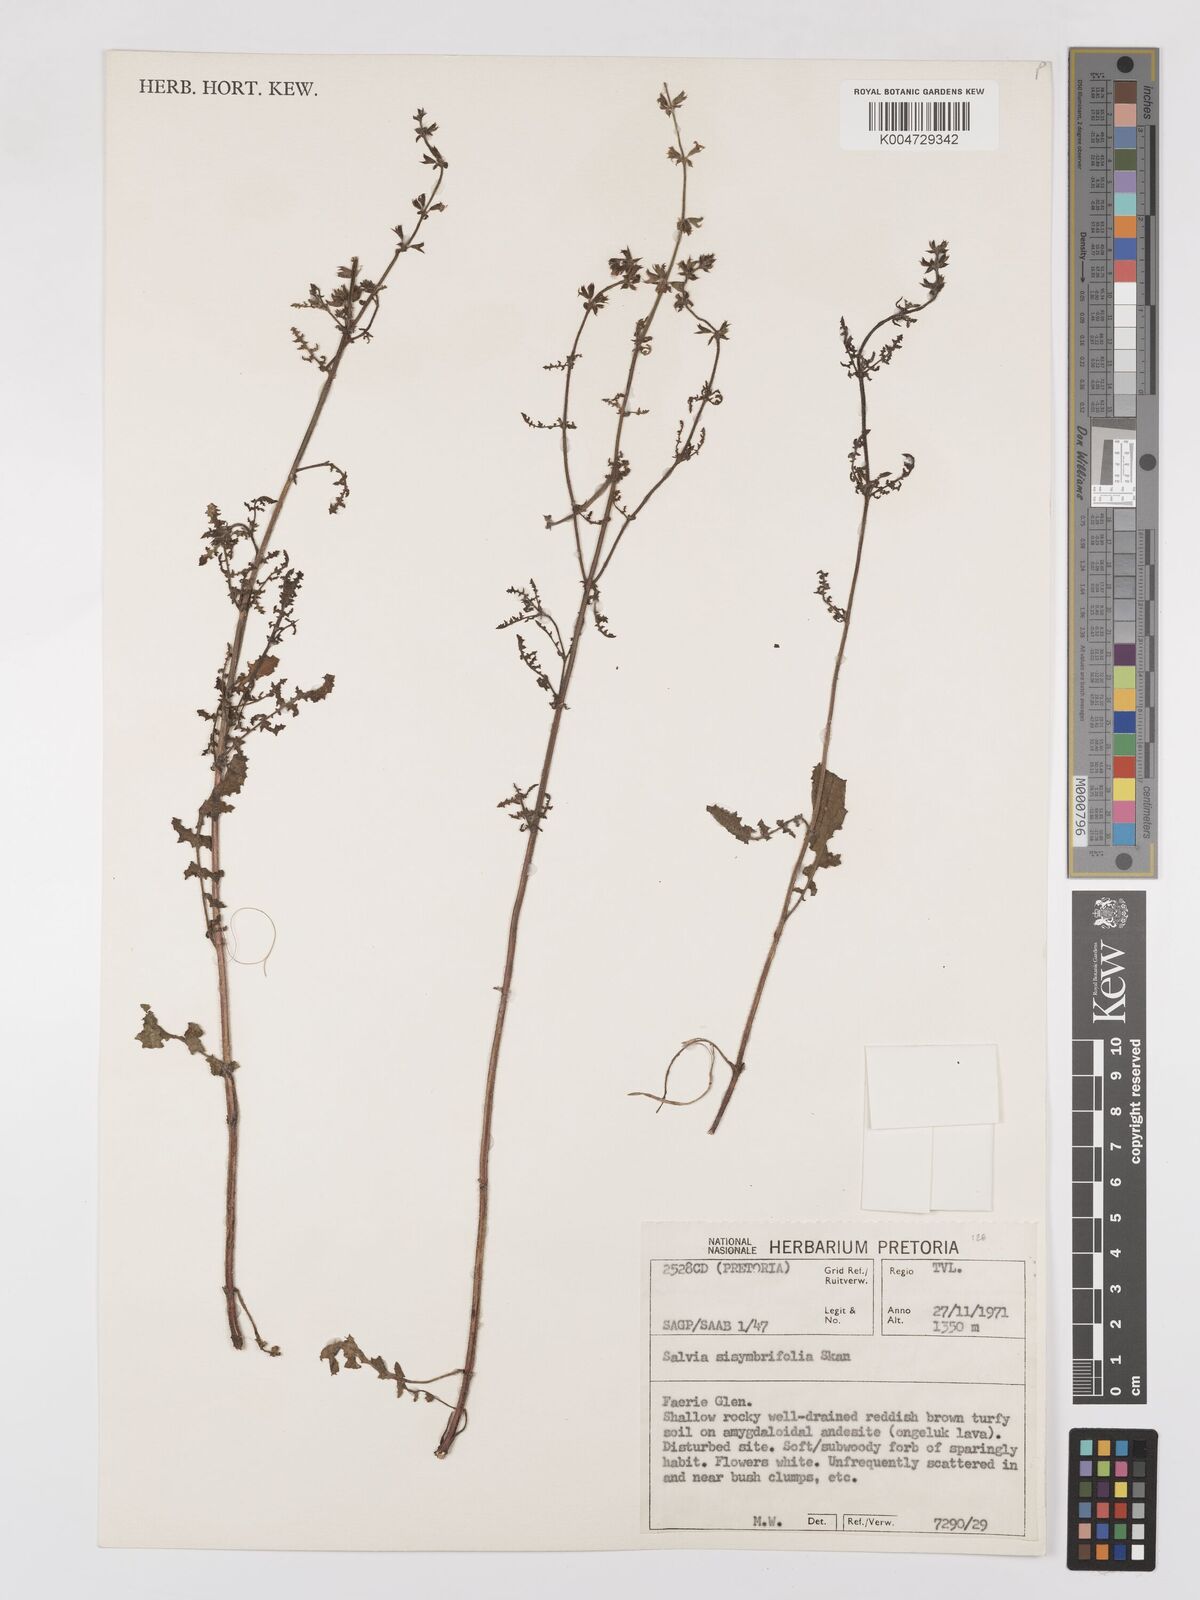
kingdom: Plantae
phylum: Tracheophyta
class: Magnoliopsida
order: Lamiales
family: Lamiaceae
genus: Salvia
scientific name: Salvia runcinata
